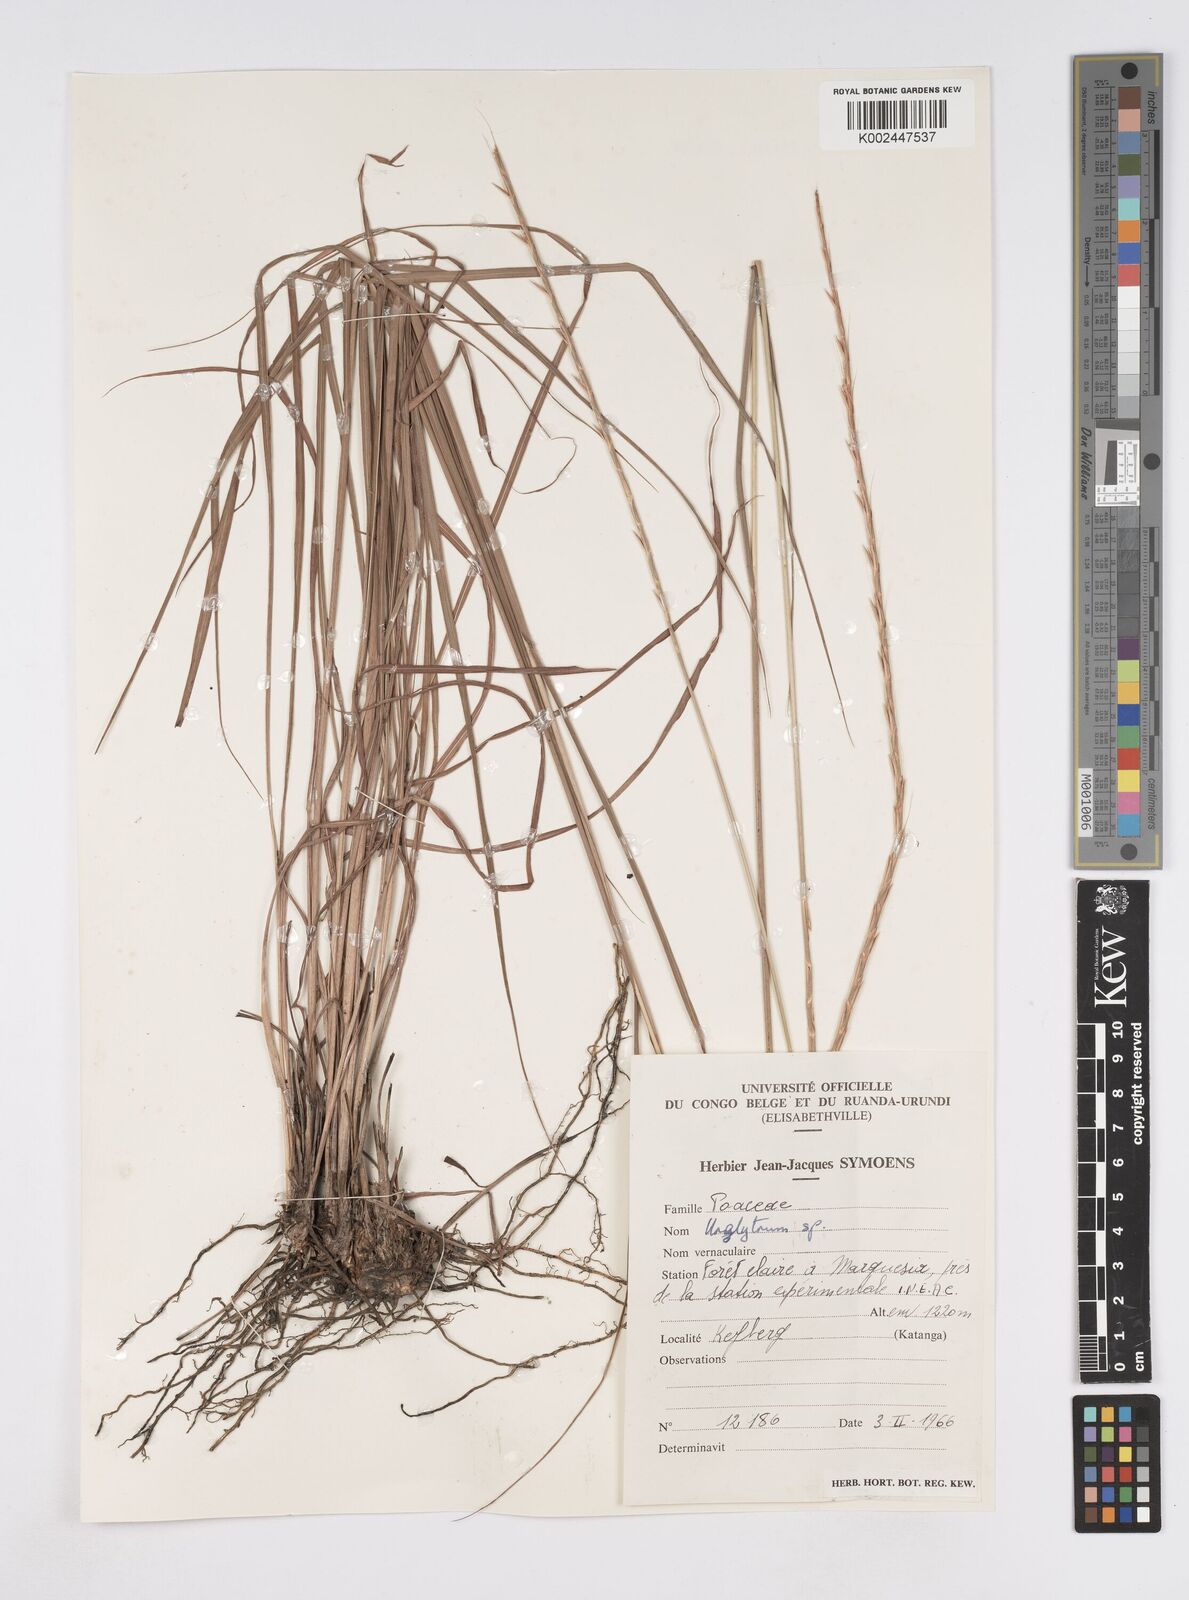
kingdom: Plantae
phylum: Tracheophyta
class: Liliopsida
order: Poales
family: Poaceae
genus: Urelytrum
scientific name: Urelytrum henrardii
